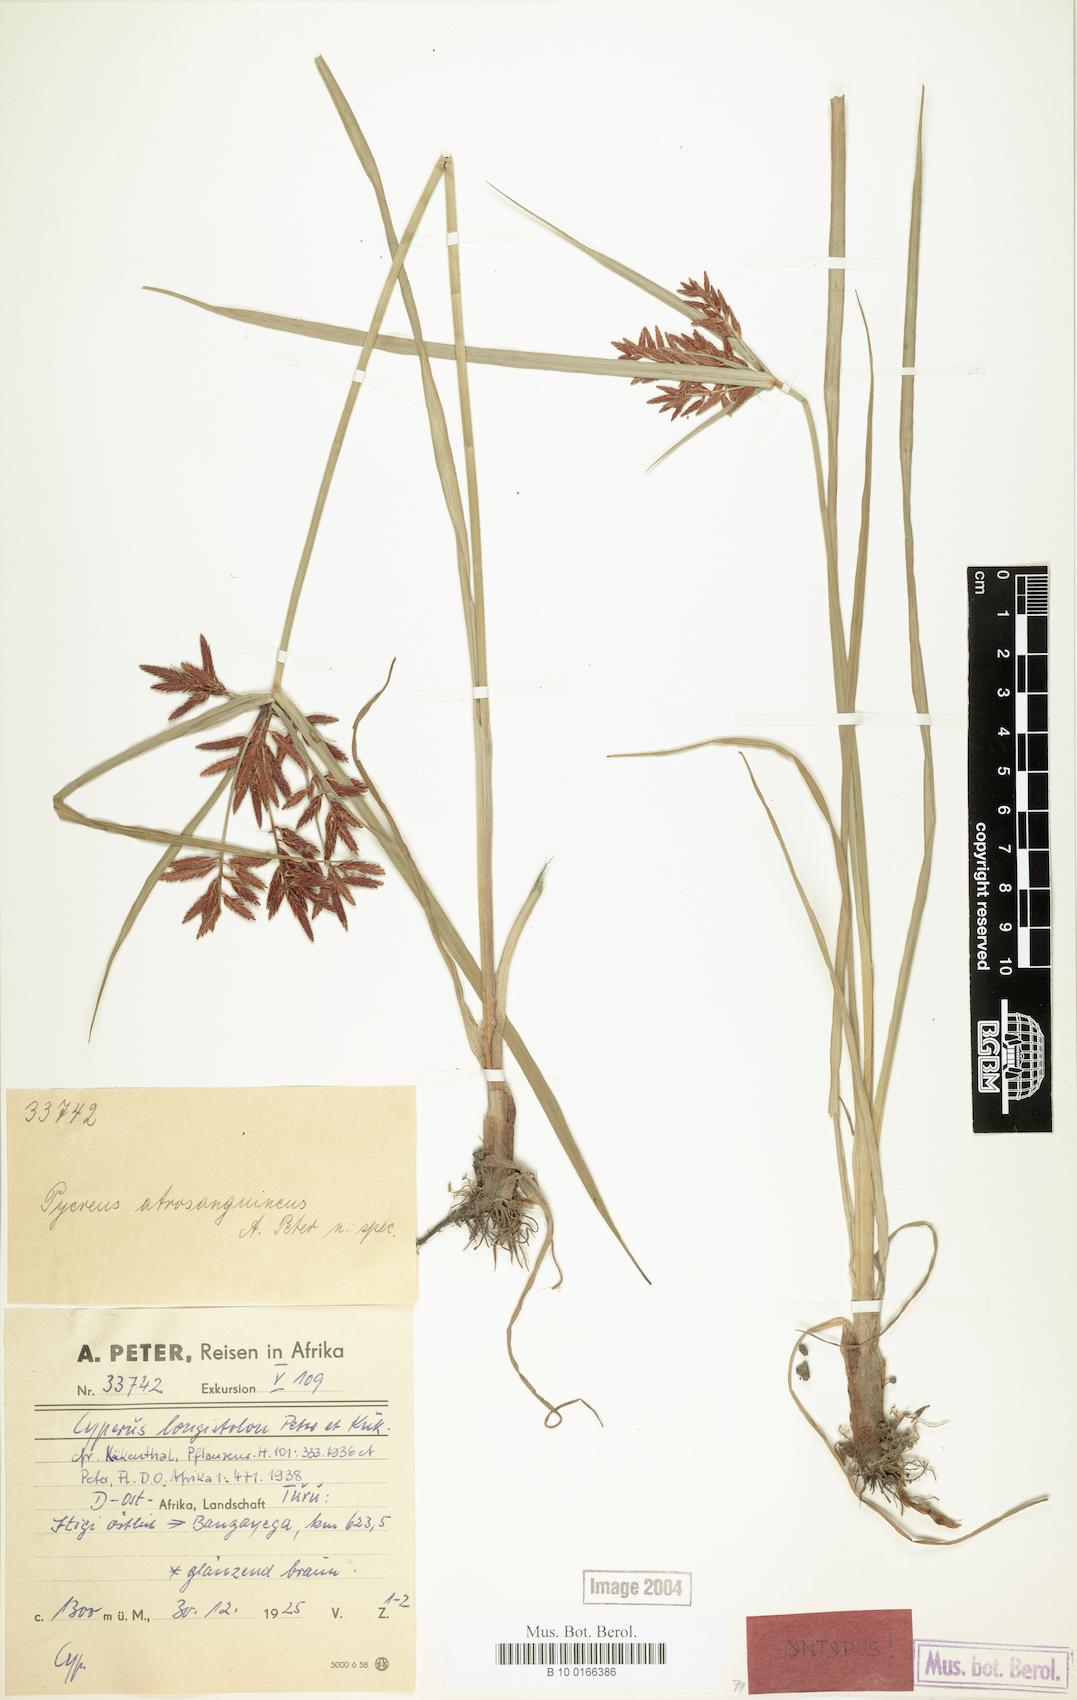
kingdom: Plantae
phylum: Tracheophyta
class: Liliopsida
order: Poales
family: Cyperaceae
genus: Cyperus
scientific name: Cyperus chrysanthus
